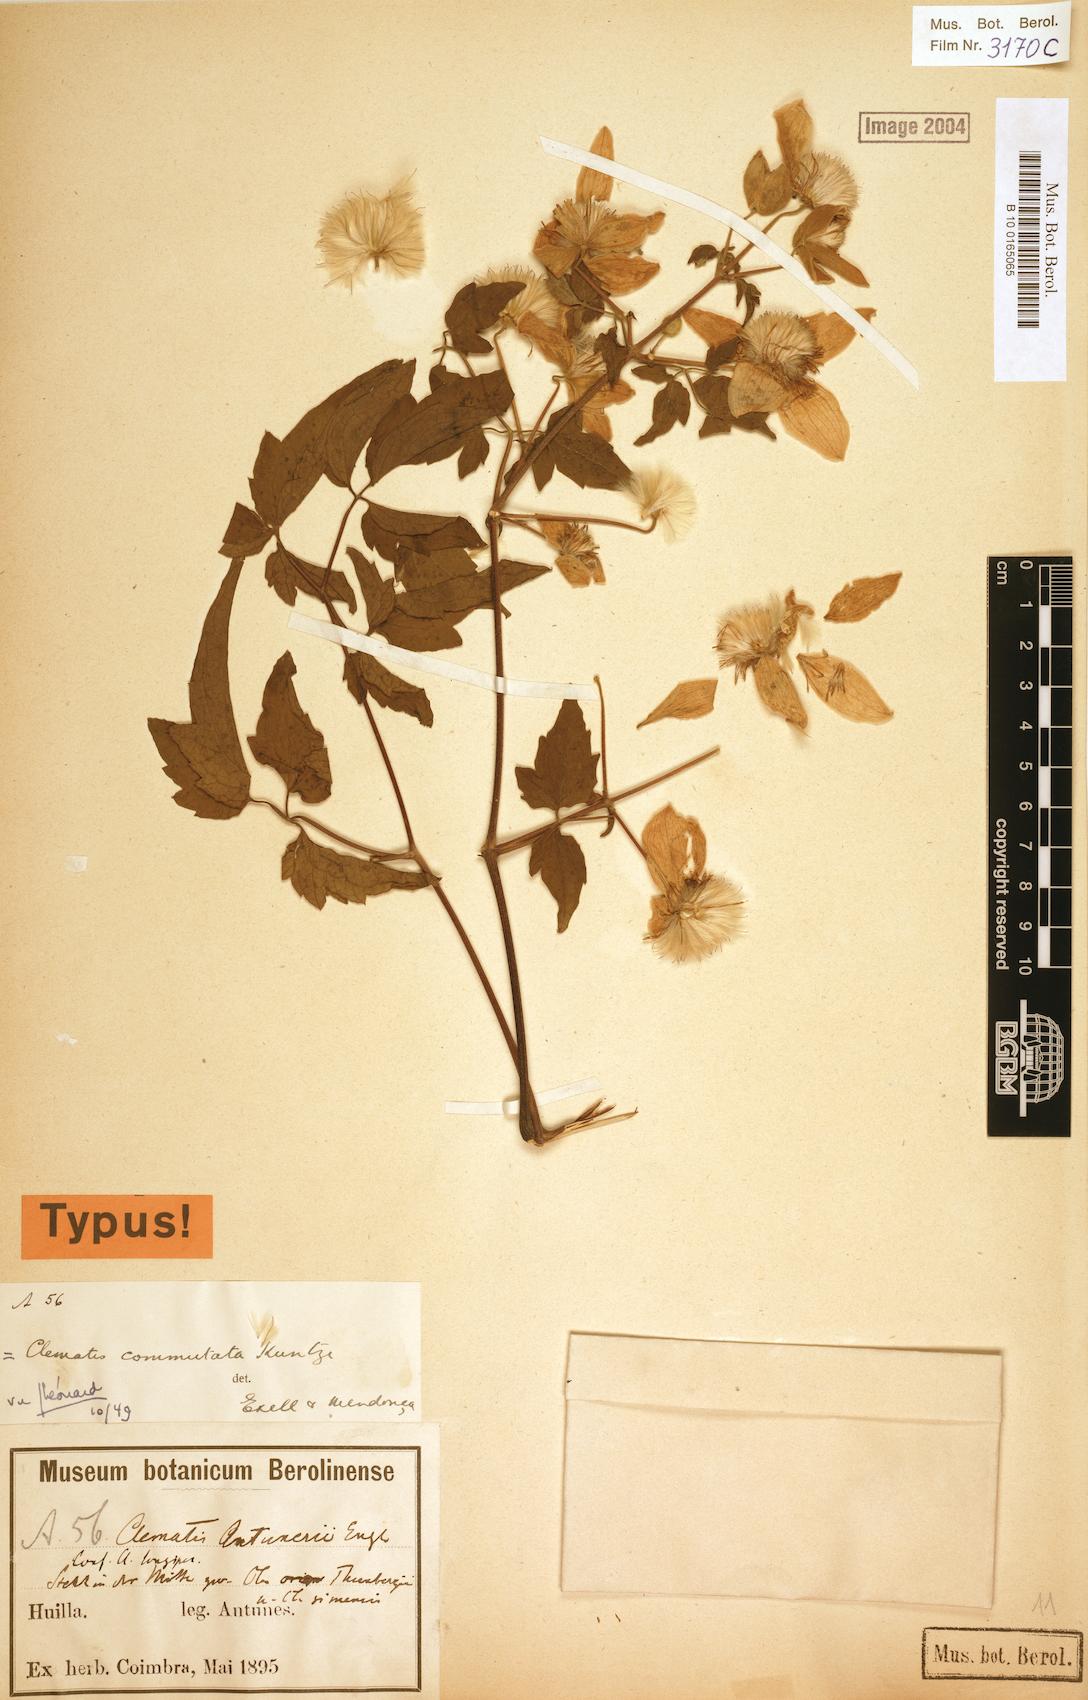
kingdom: Plantae
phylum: Tracheophyta
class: Magnoliopsida
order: Ranunculales
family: Ranunculaceae
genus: Clematis
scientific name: Clematis commutata
